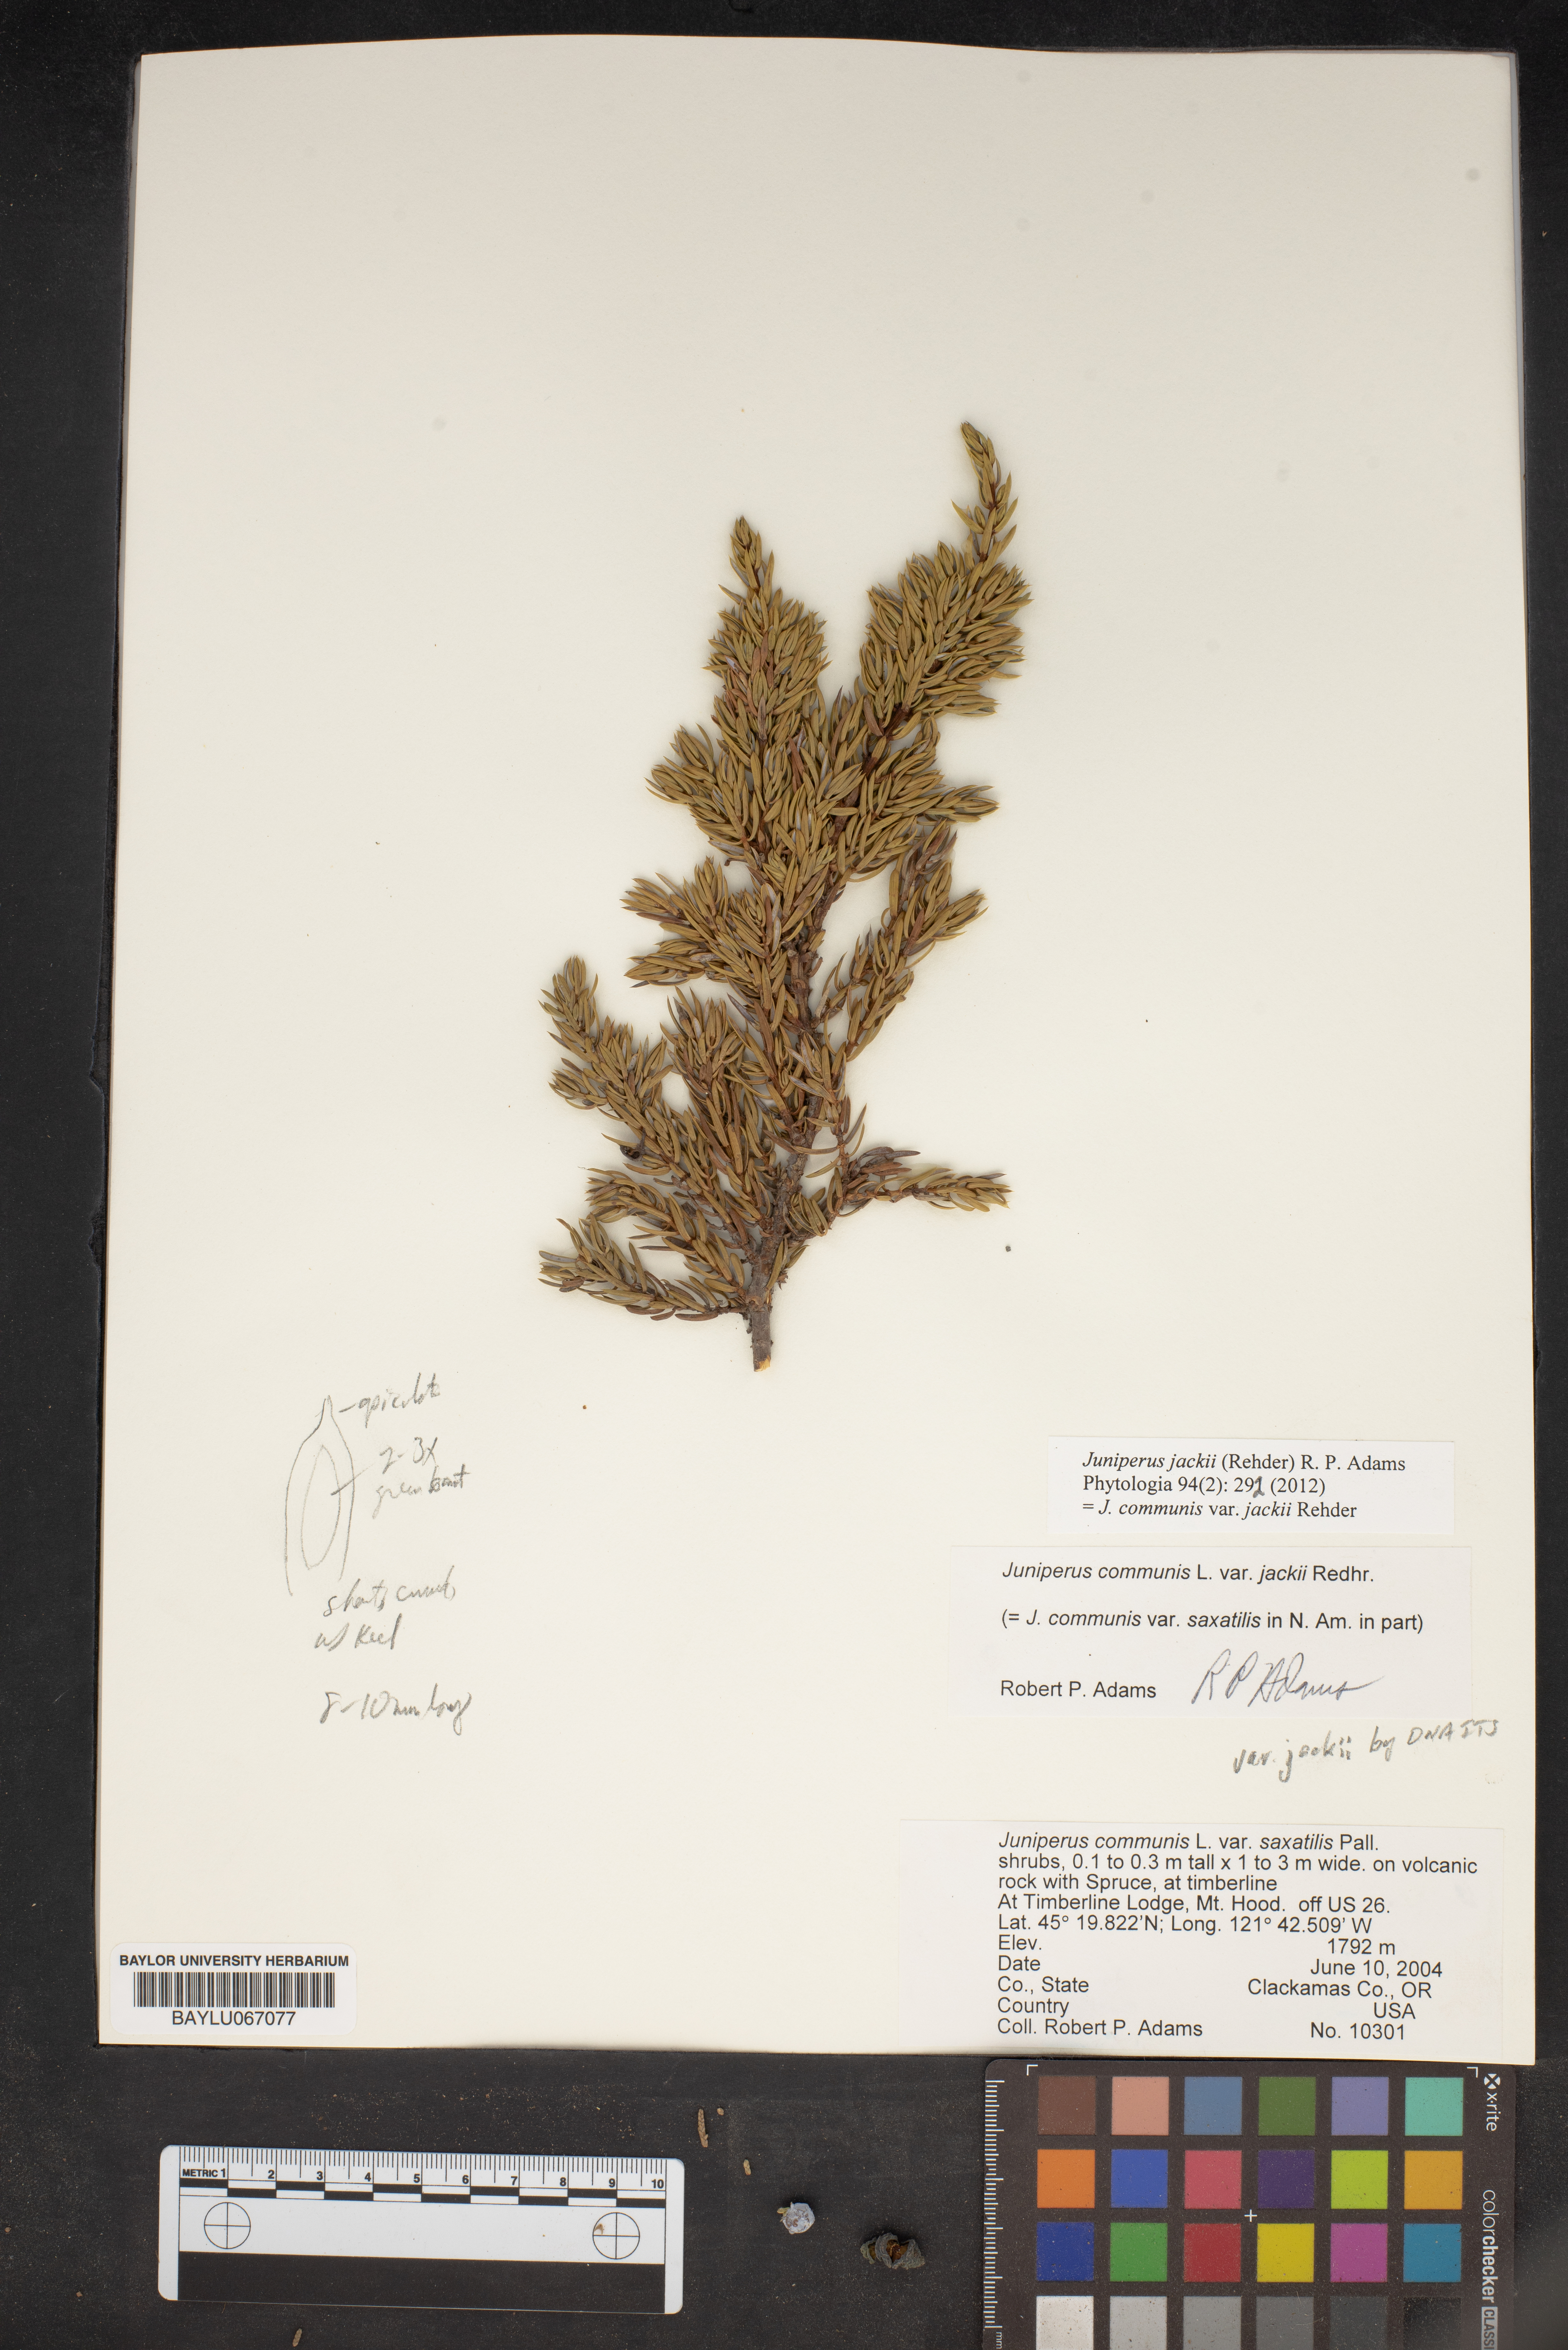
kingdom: Plantae
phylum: Tracheophyta
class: Pinopsida
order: Pinales
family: Cupressaceae
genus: Juniperus
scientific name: Juniperus communis
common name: Common juniper
